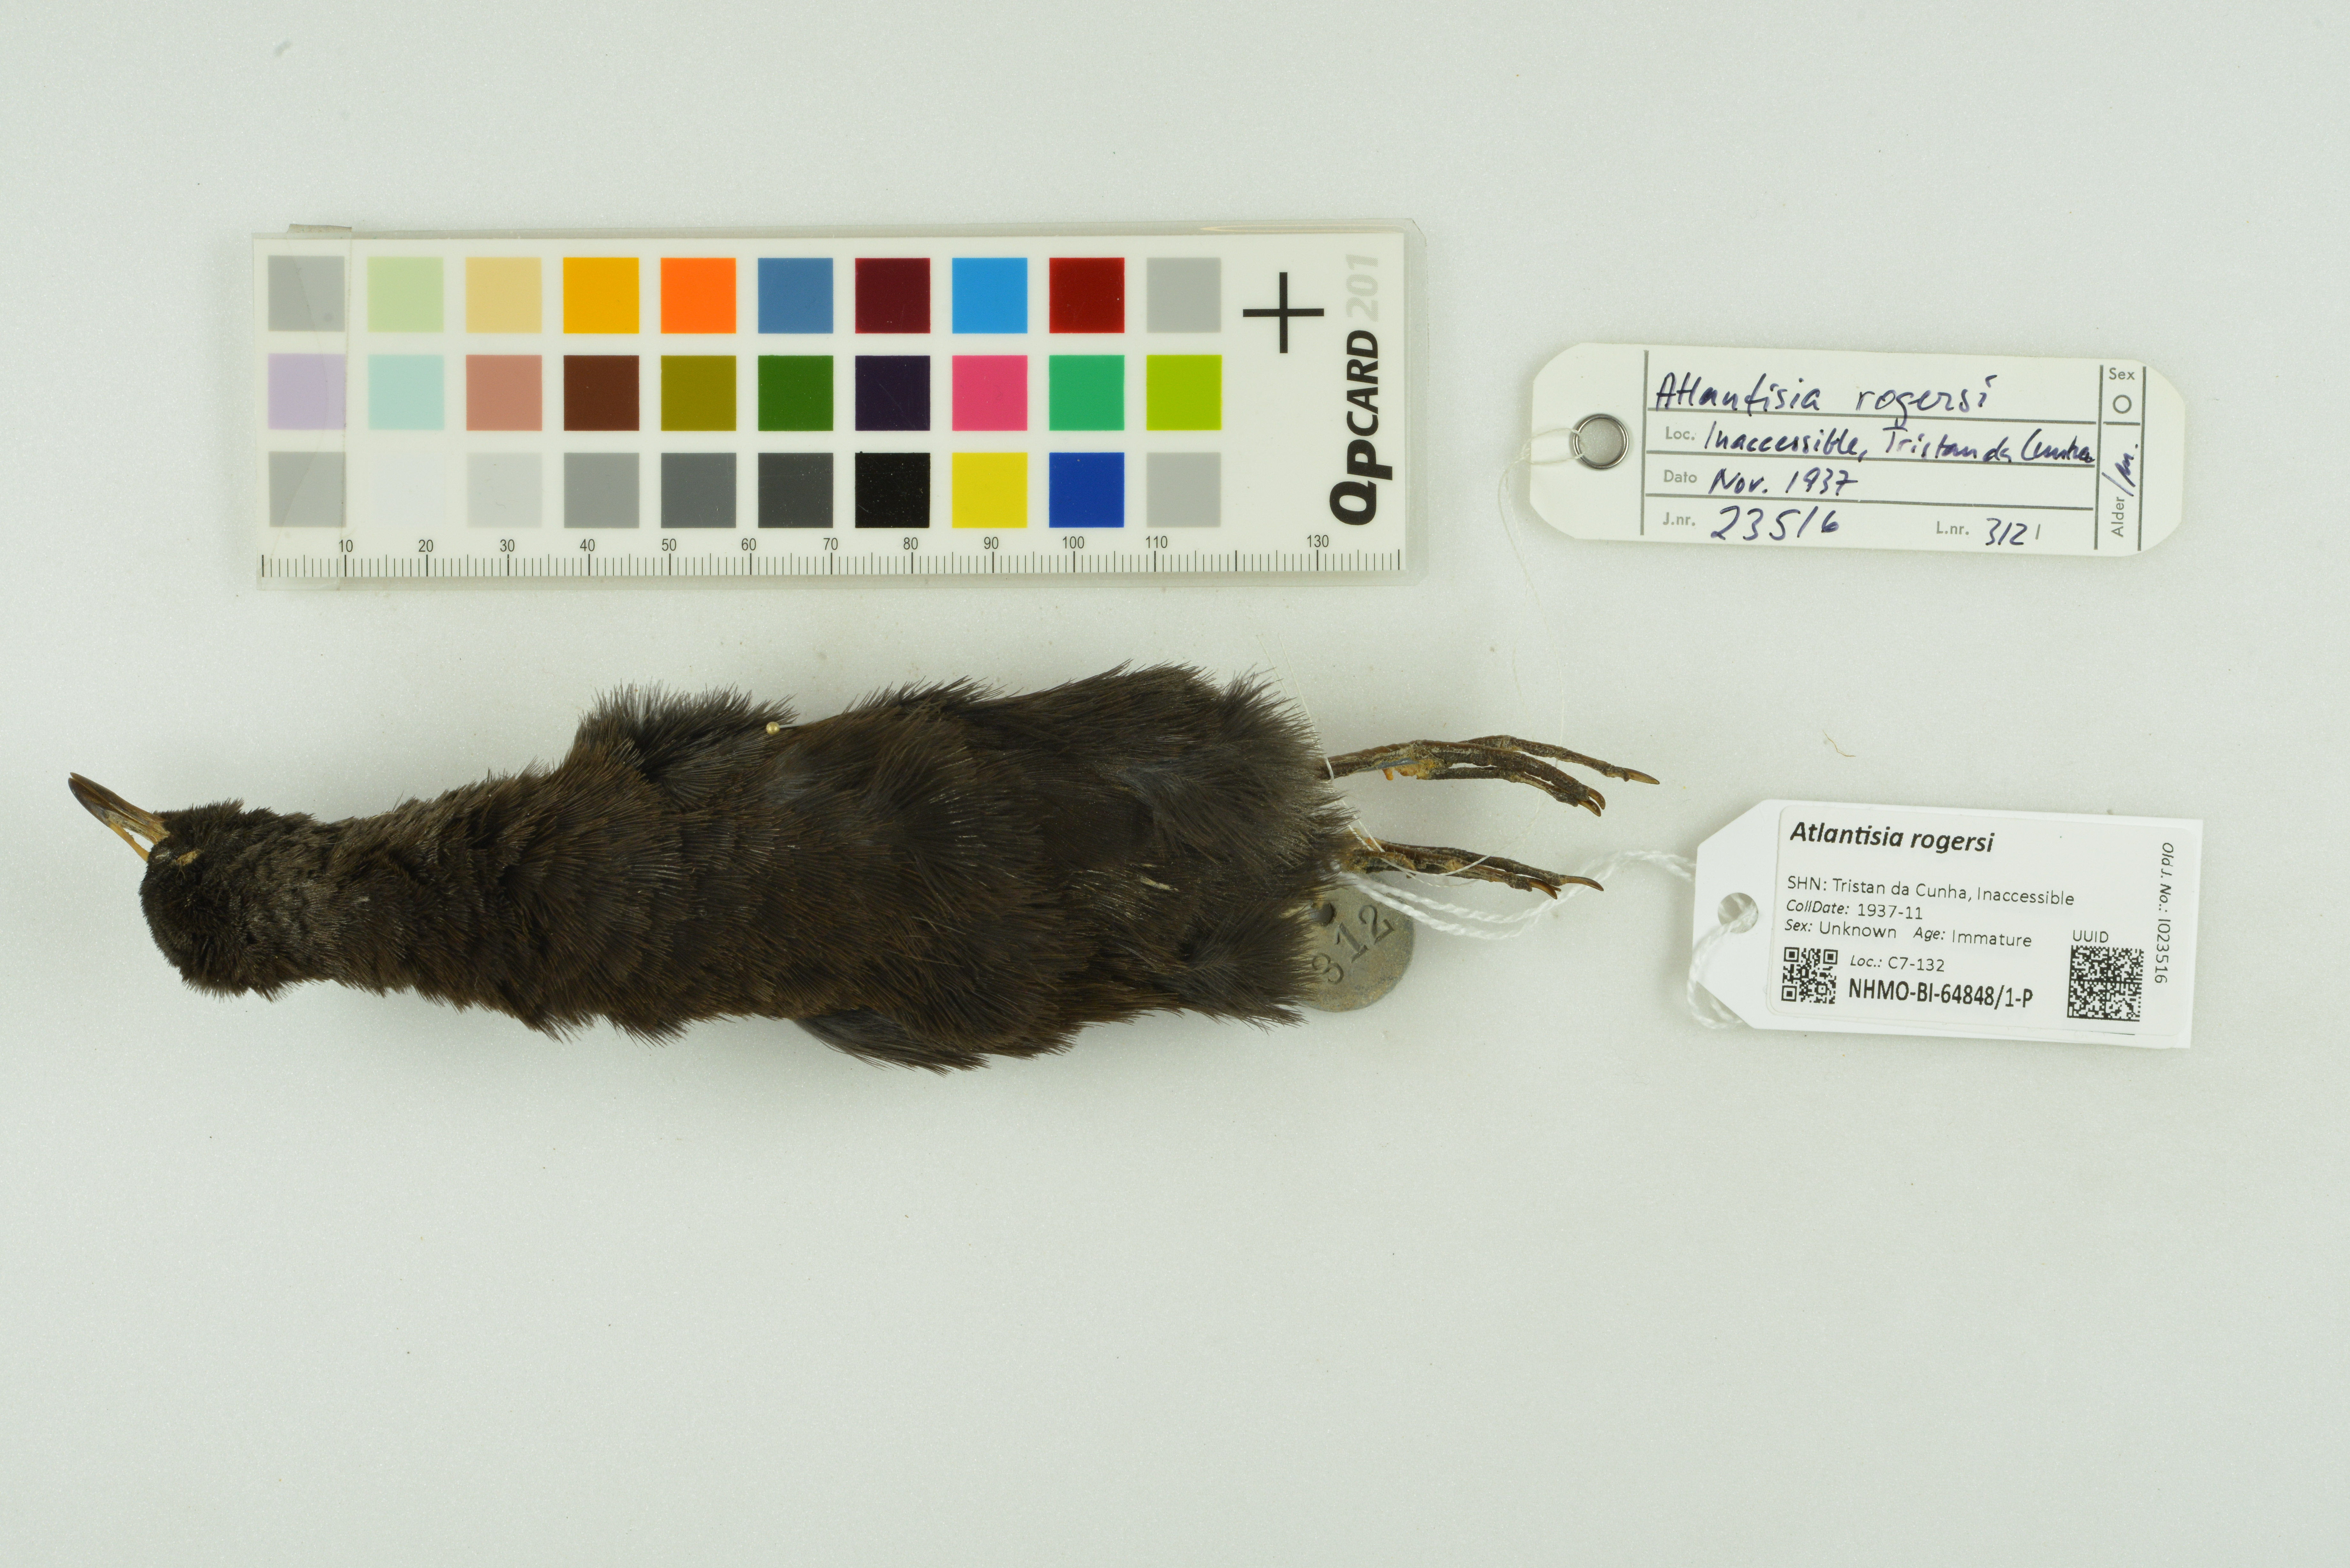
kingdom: Animalia
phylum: Chordata
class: Aves
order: Gruiformes
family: Rallidae
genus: Atlantisia
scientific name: Atlantisia rogersi
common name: Inaccessible island rail
